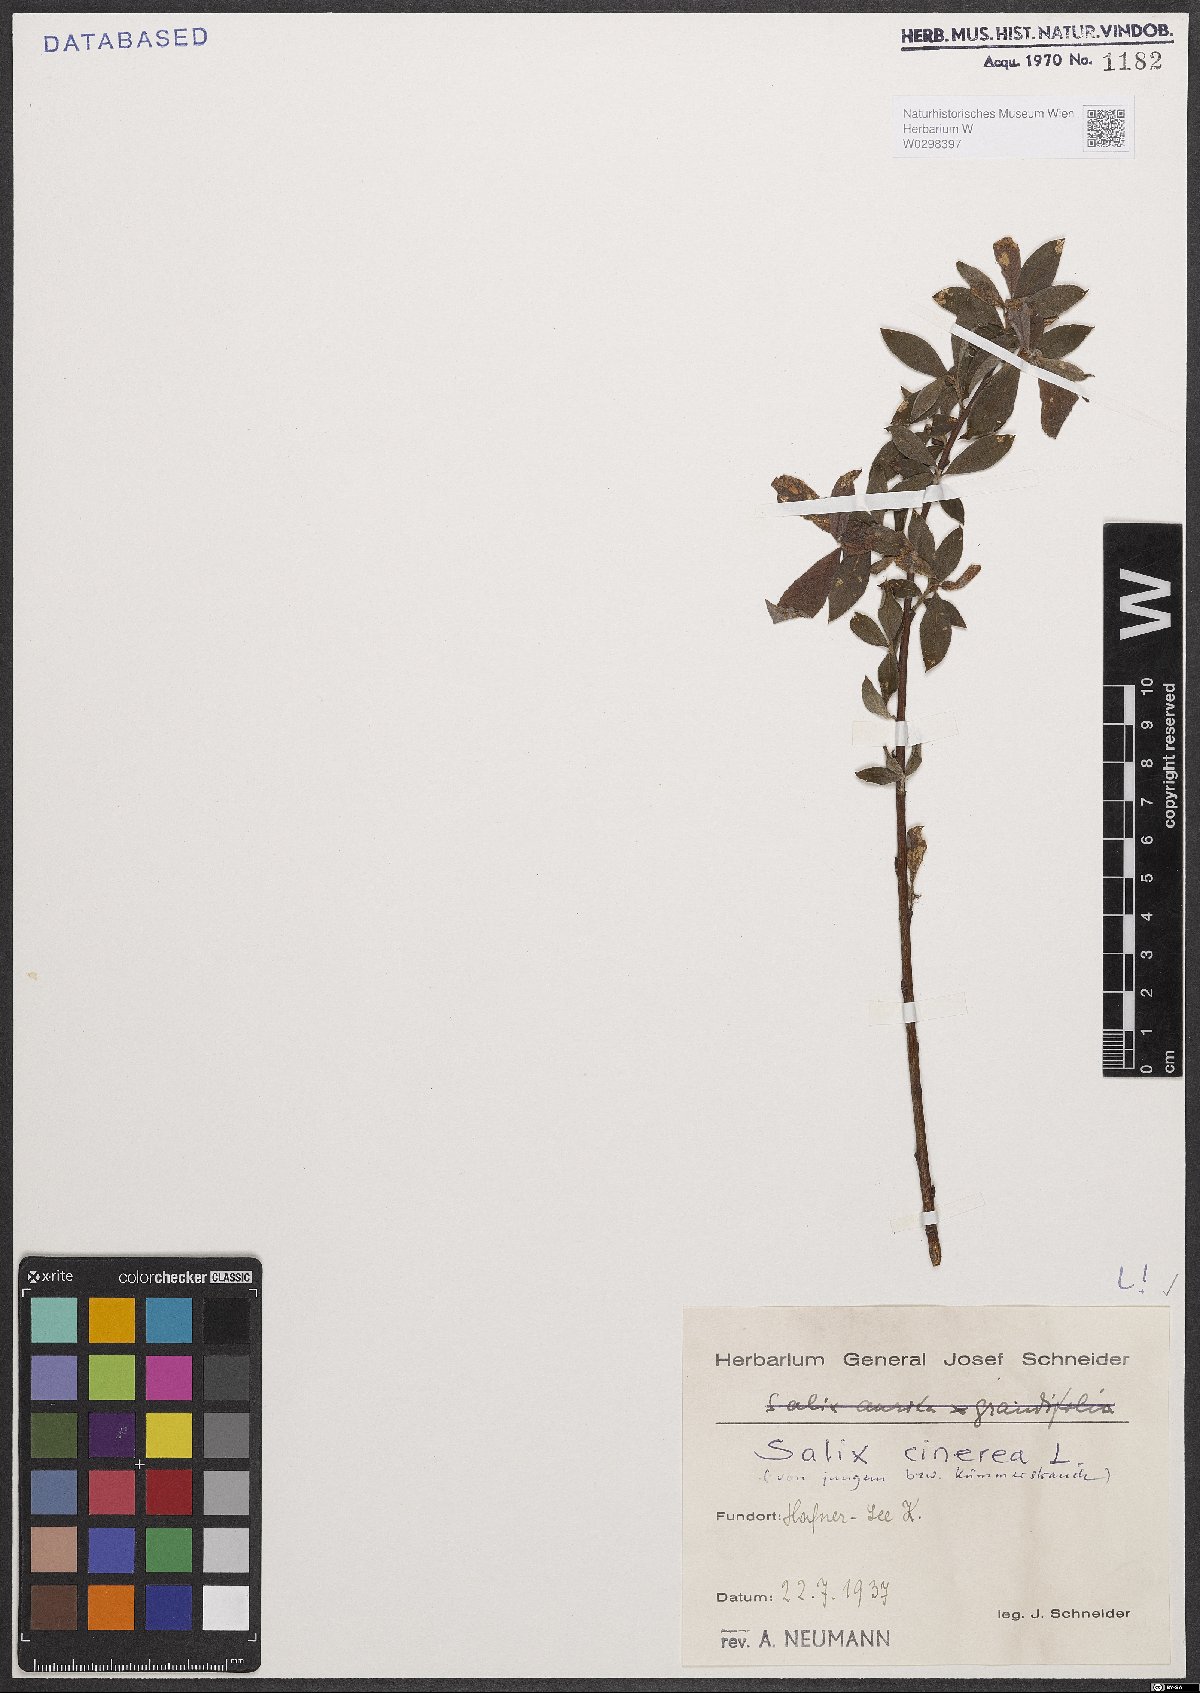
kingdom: Plantae
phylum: Tracheophyta
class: Magnoliopsida
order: Malpighiales
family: Salicaceae
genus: Salix
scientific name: Salix cinerea
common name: Common sallow
